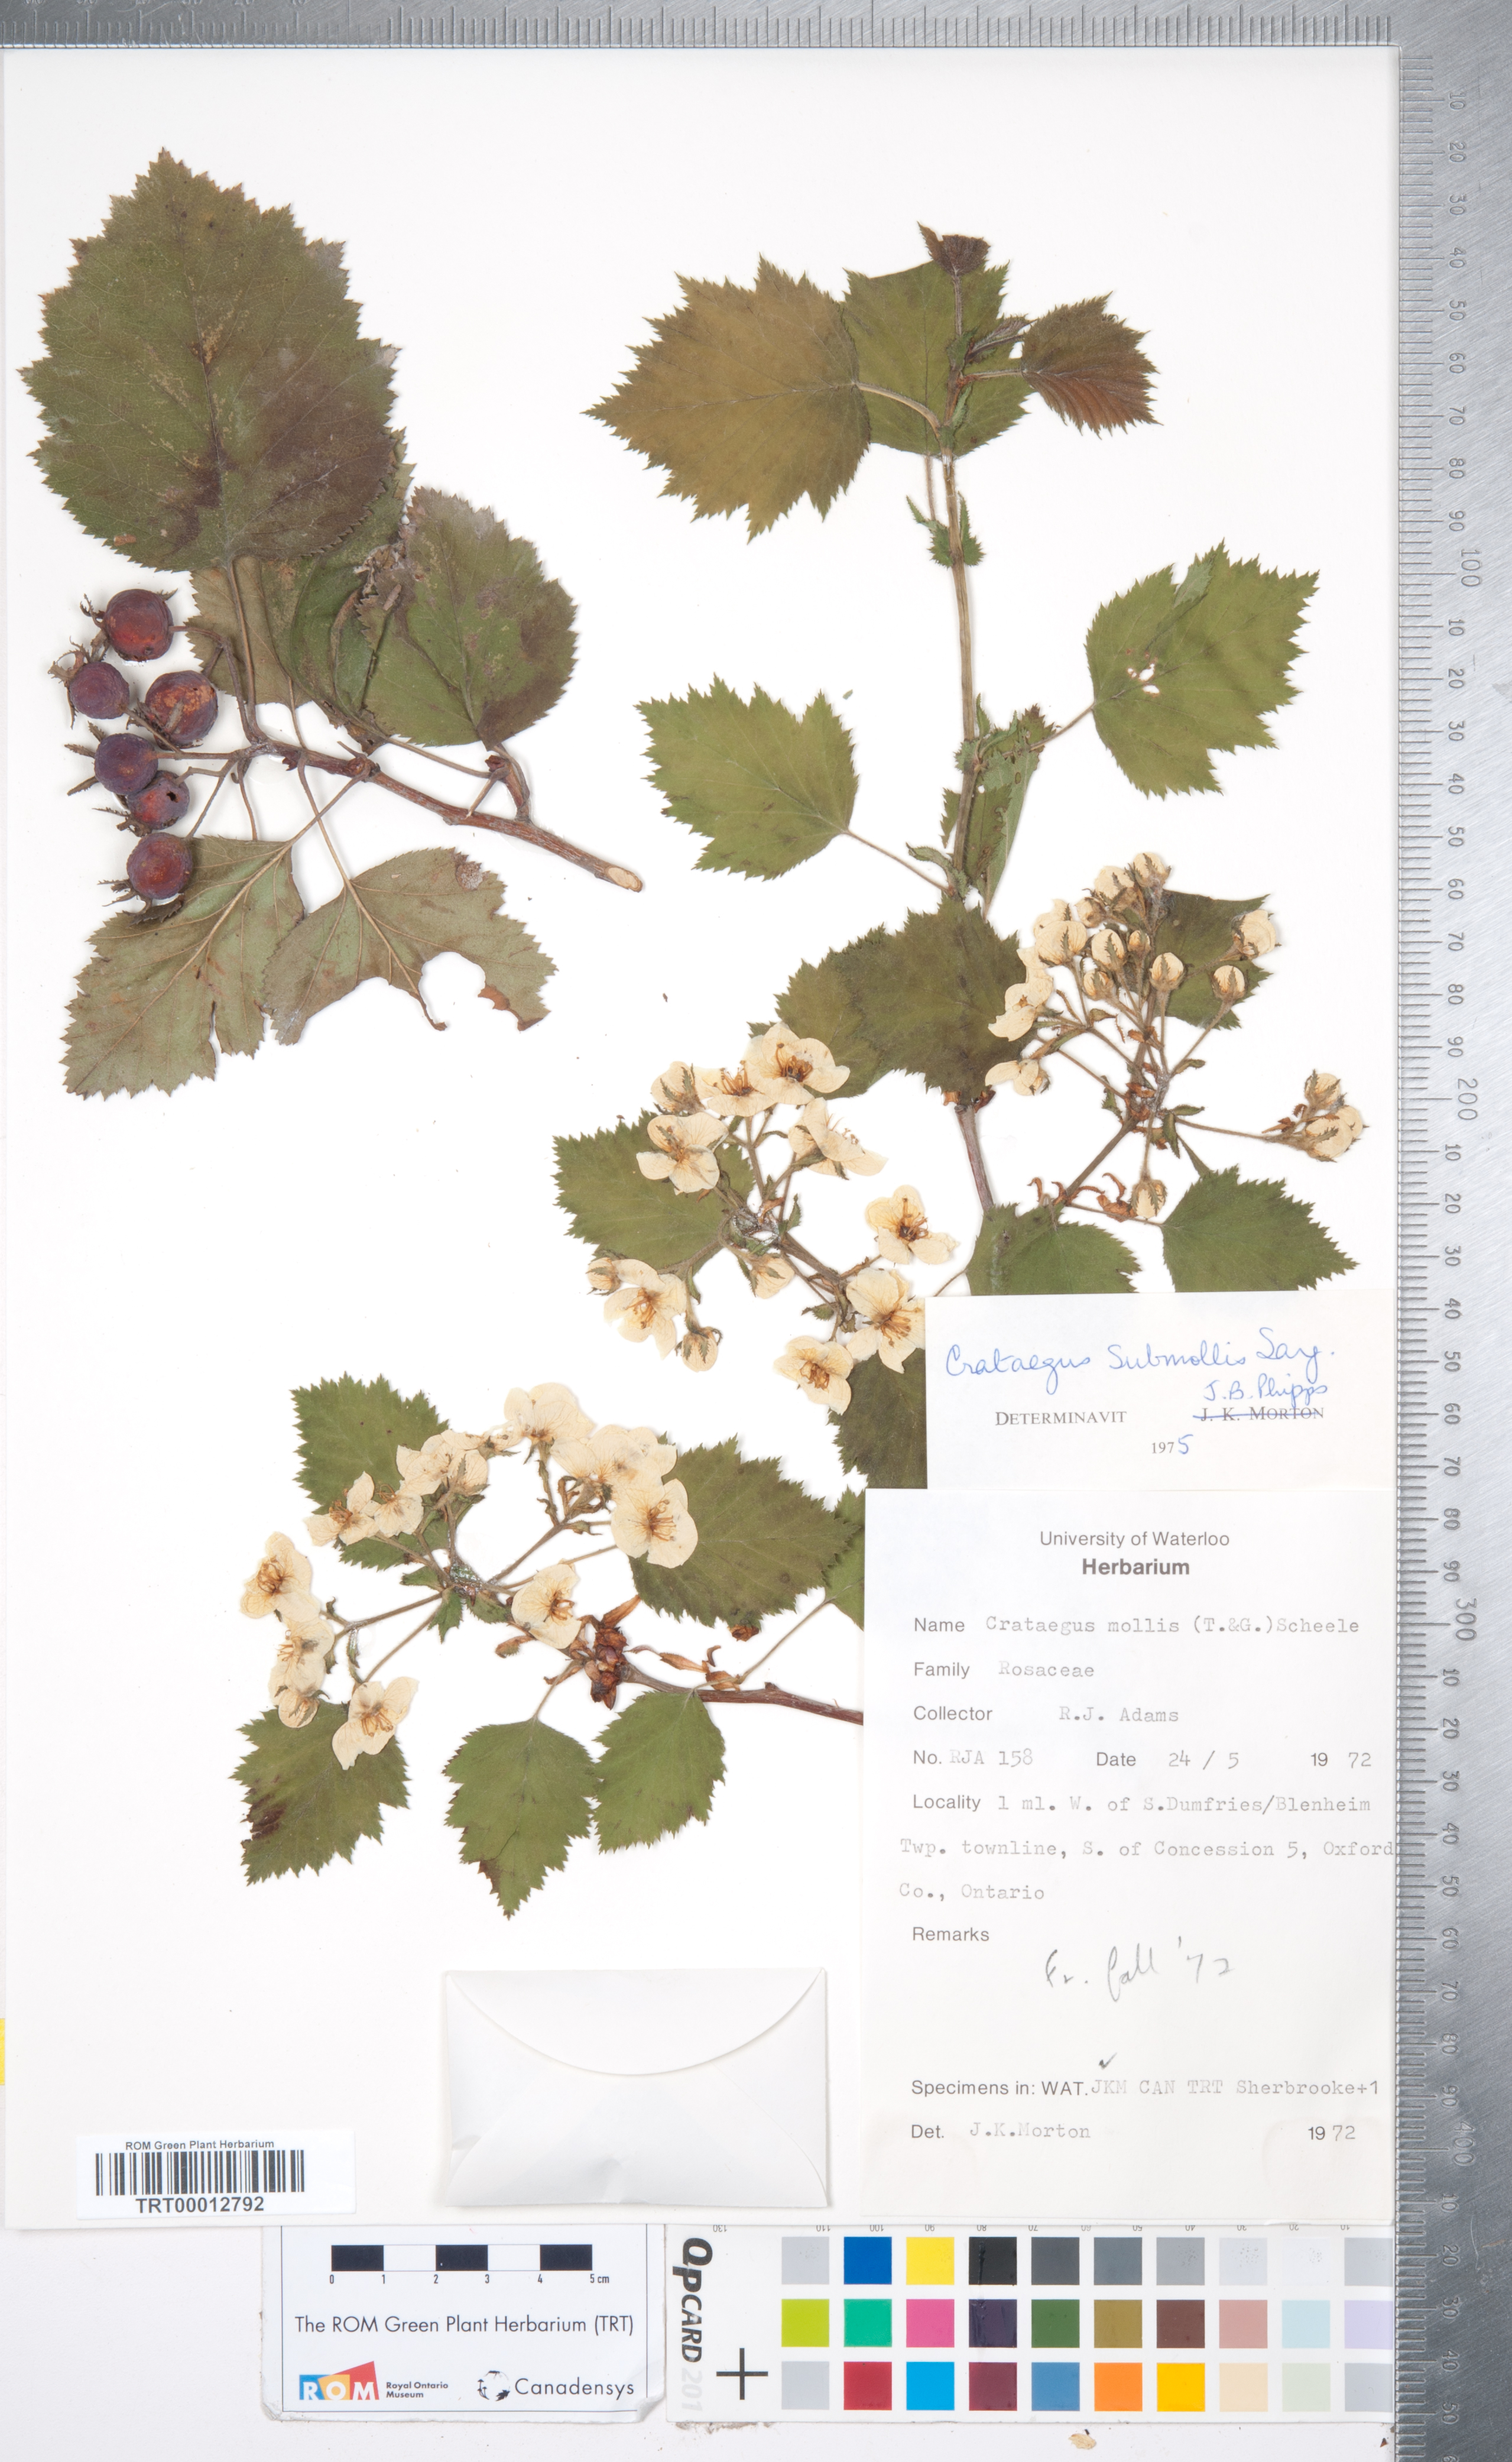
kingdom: Plantae
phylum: Tracheophyta
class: Magnoliopsida
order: Rosales
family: Rosaceae
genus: Crataegus
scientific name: Crataegus submollis
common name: Hairy cockspurthorn
